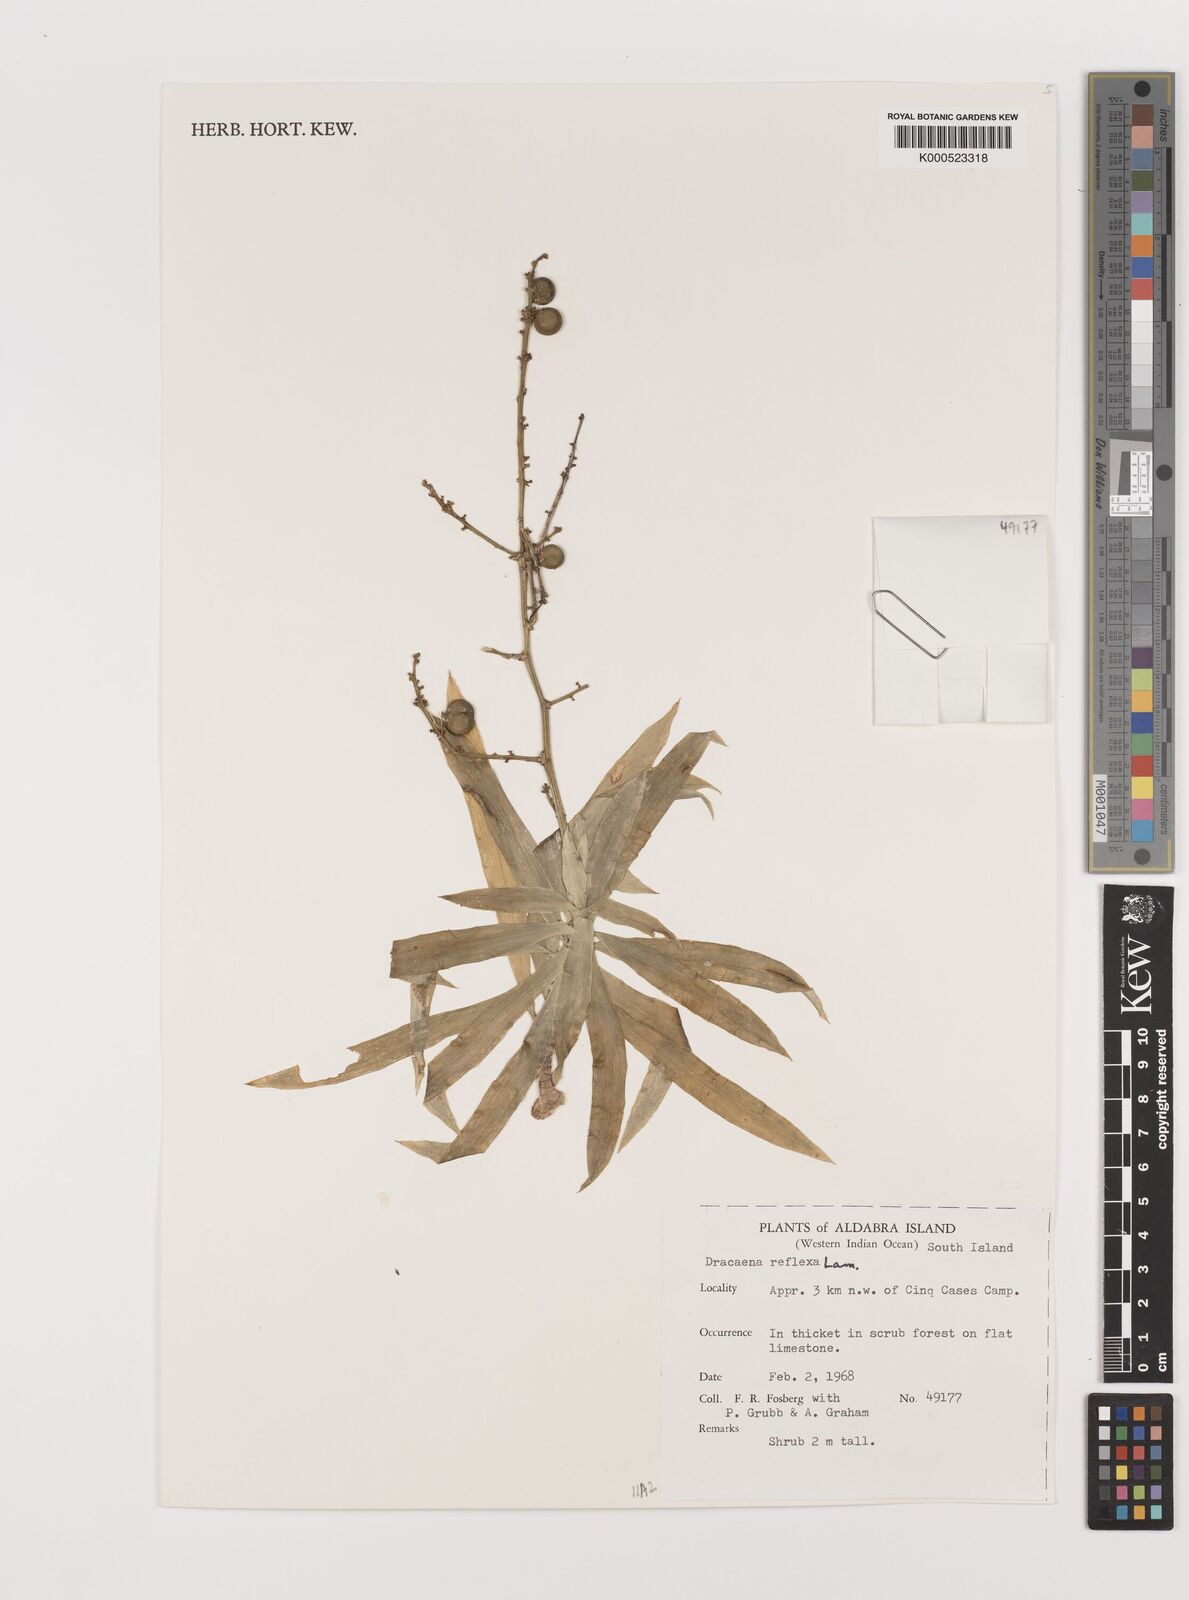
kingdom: Plantae
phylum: Tracheophyta
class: Liliopsida
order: Asparagales
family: Asparagaceae
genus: Dracaena
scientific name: Dracaena reflexa
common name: Song-of-india
